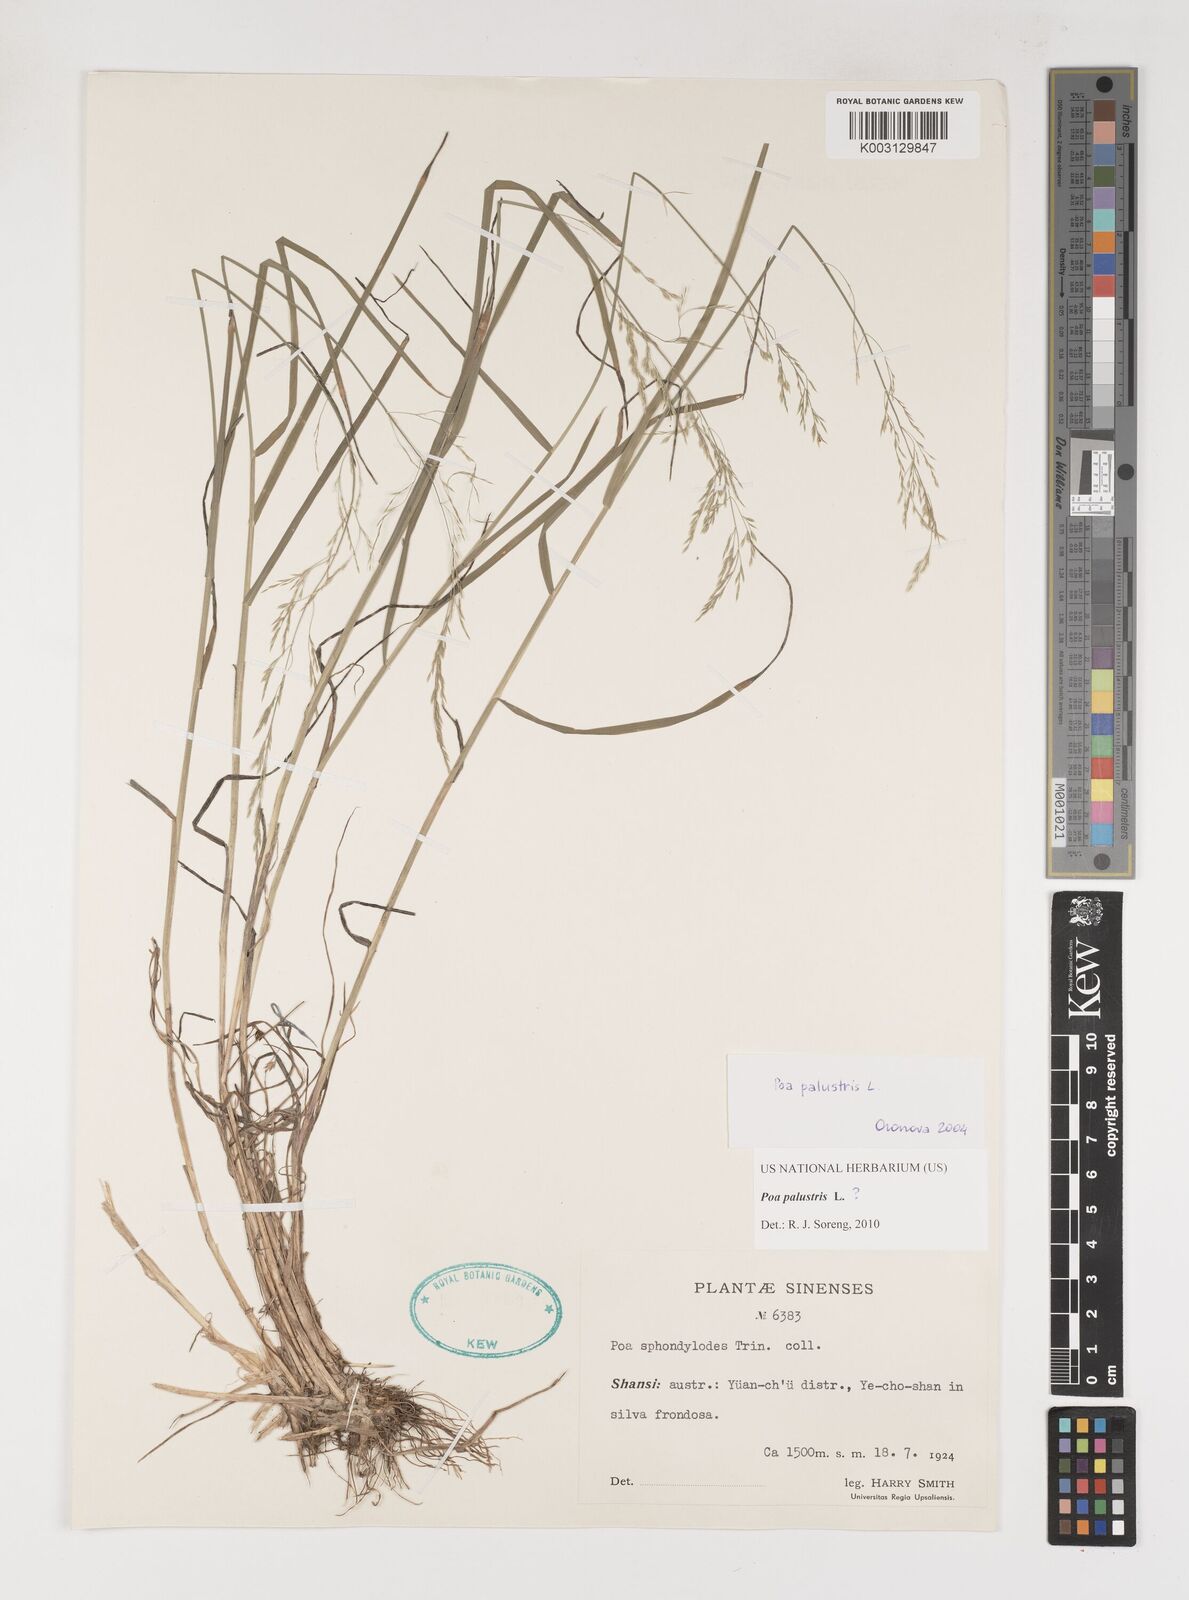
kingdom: Plantae
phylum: Tracheophyta
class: Liliopsida
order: Poales
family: Poaceae
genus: Poa
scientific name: Poa palustris
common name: Swamp meadow-grass
